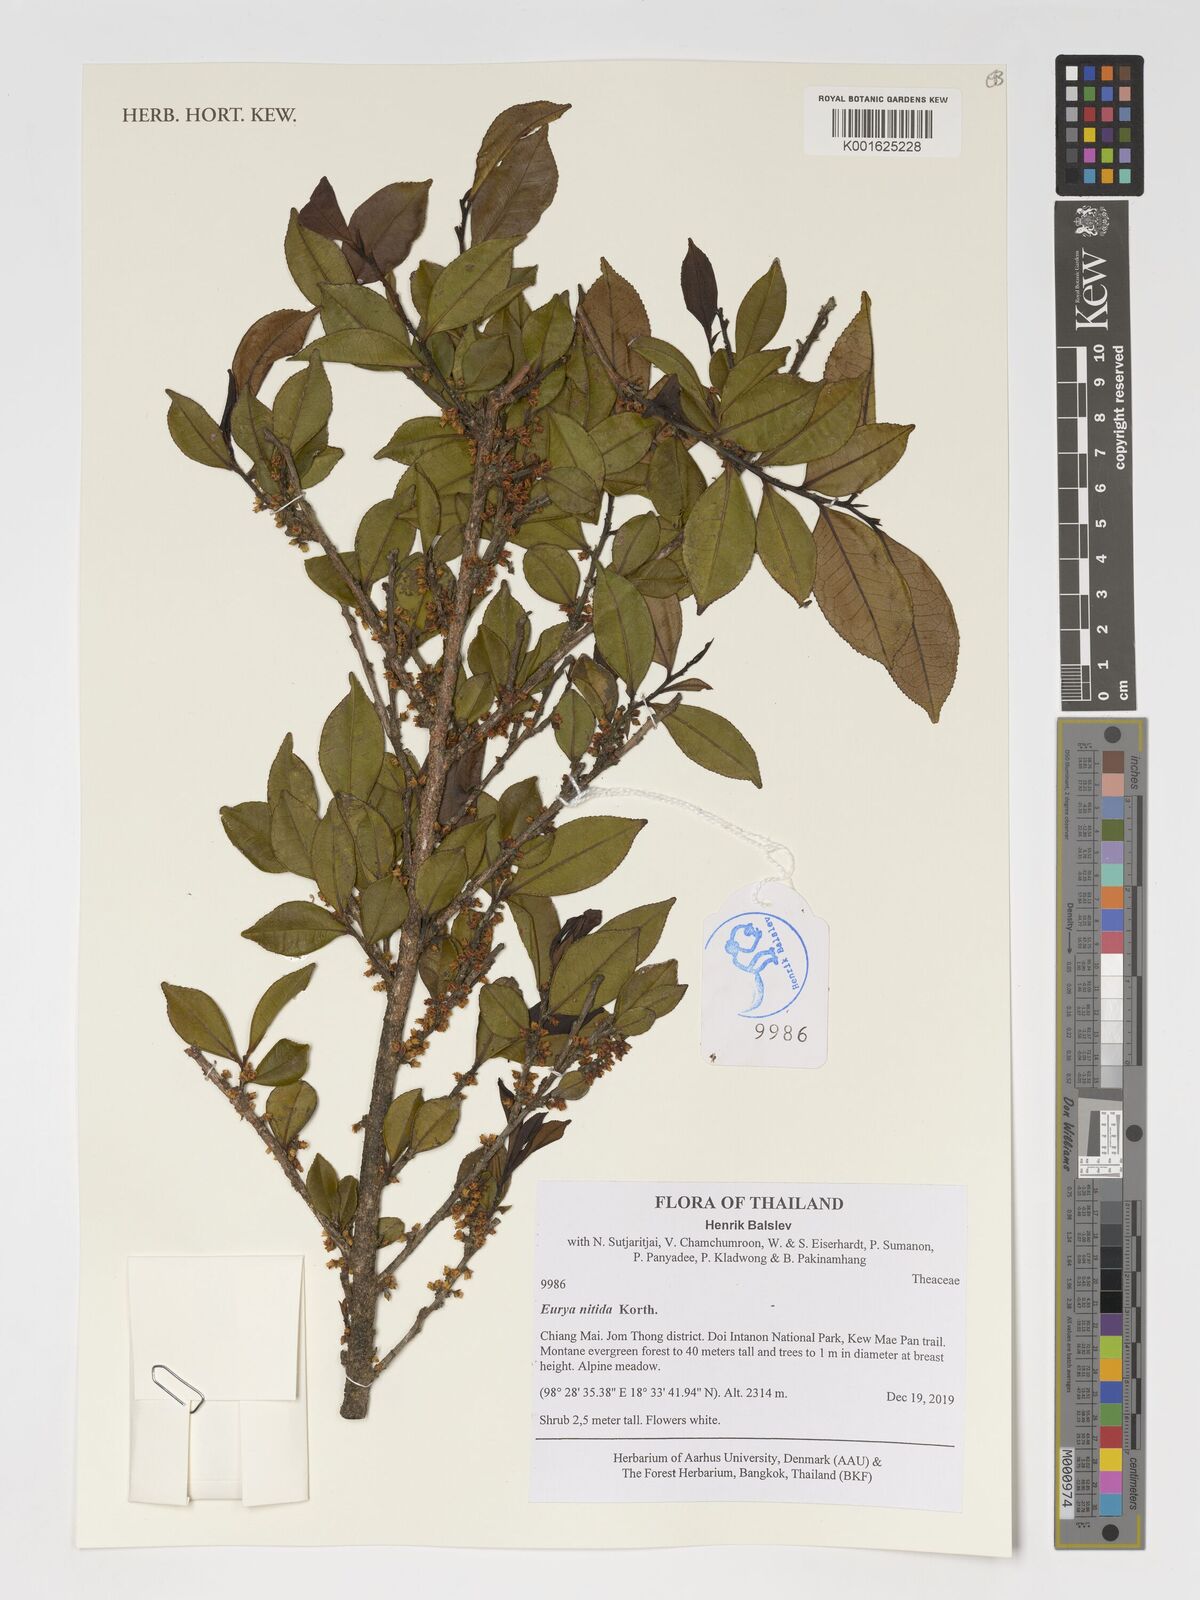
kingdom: Plantae
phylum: Tracheophyta
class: Magnoliopsida
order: Ericales
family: Pentaphylacaceae
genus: Eurya
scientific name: Eurya nitida
